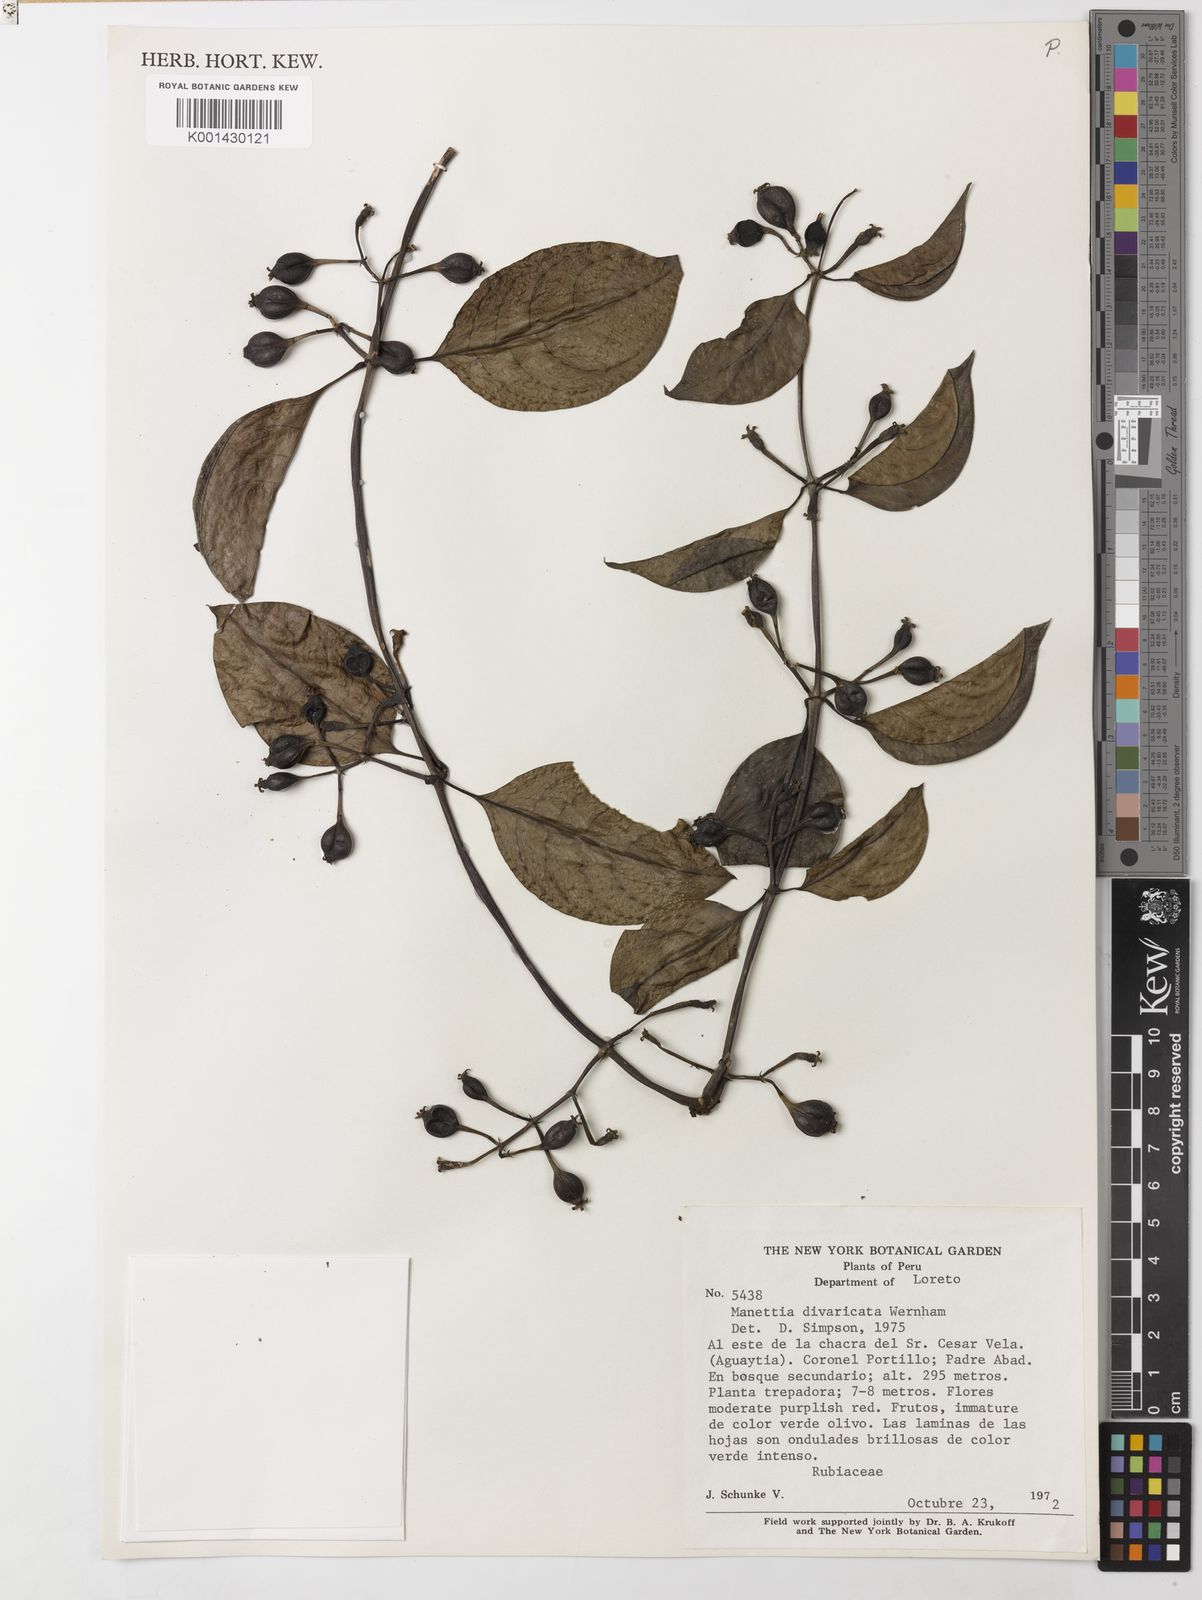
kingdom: Plantae
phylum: Tracheophyta
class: Magnoliopsida
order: Gentianales
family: Rubiaceae
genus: Manettia
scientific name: Manettia divaricata
